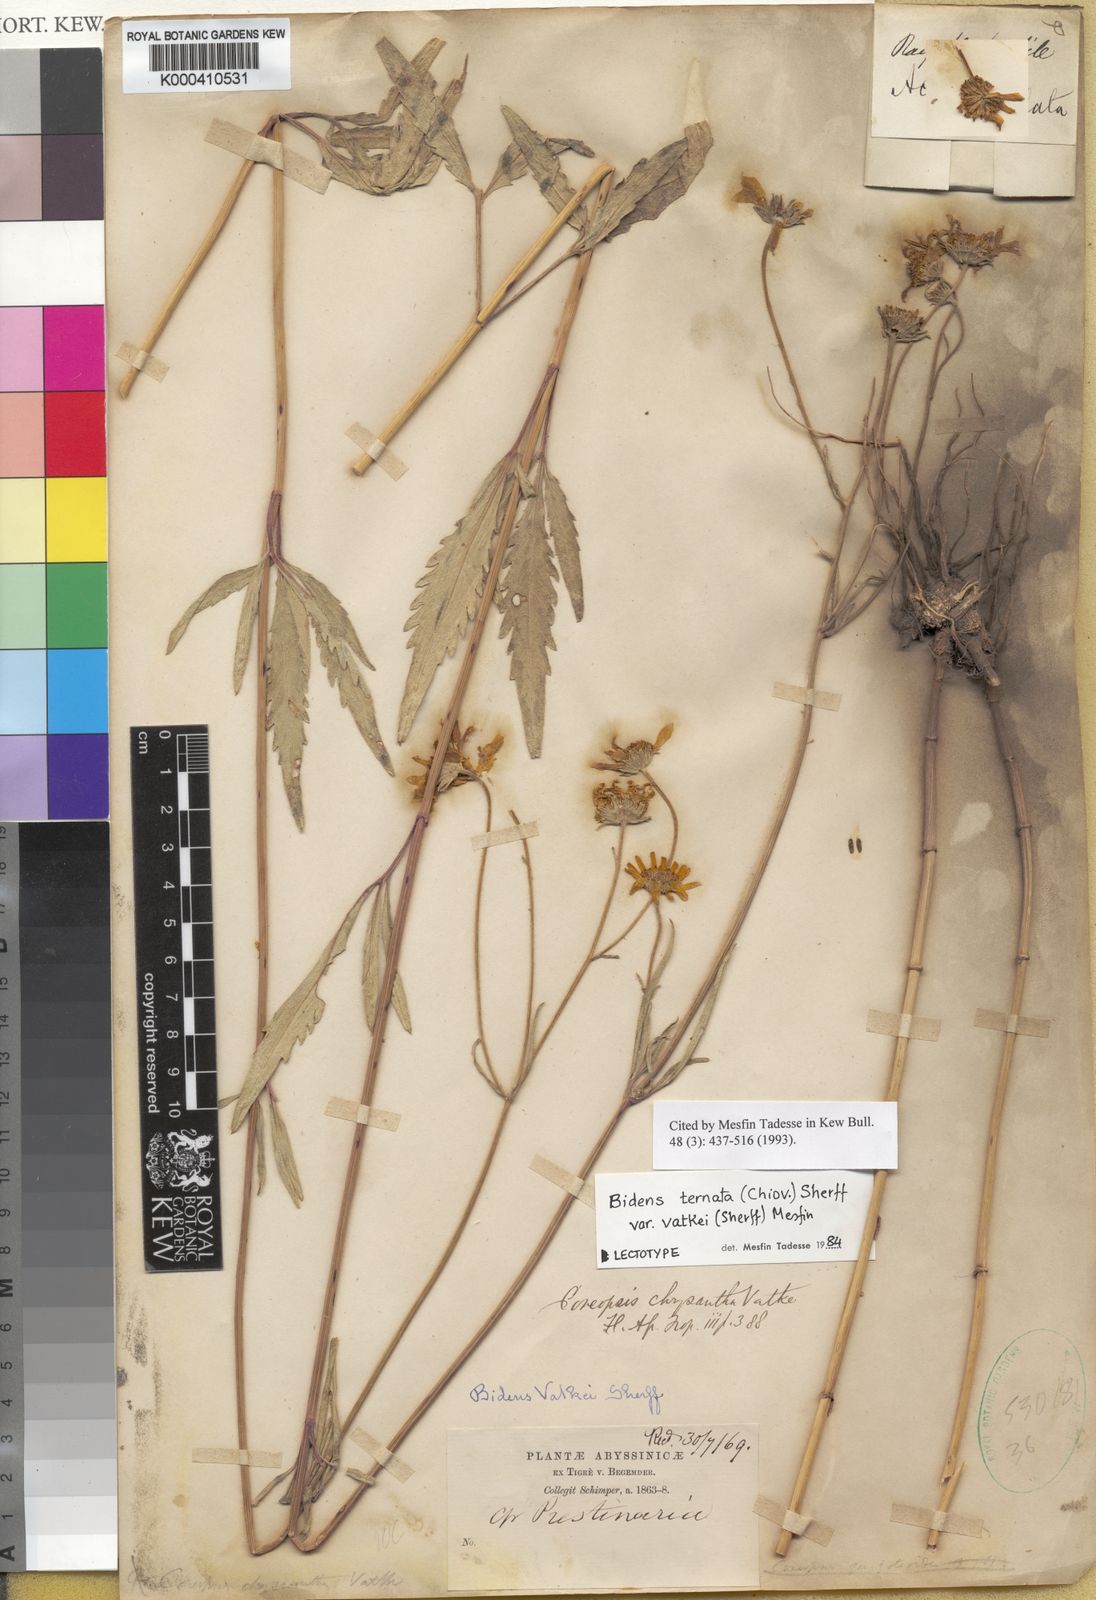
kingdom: Plantae
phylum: Tracheophyta
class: Magnoliopsida
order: Asterales
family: Asteraceae
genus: Bidens
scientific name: Bidens ternata
